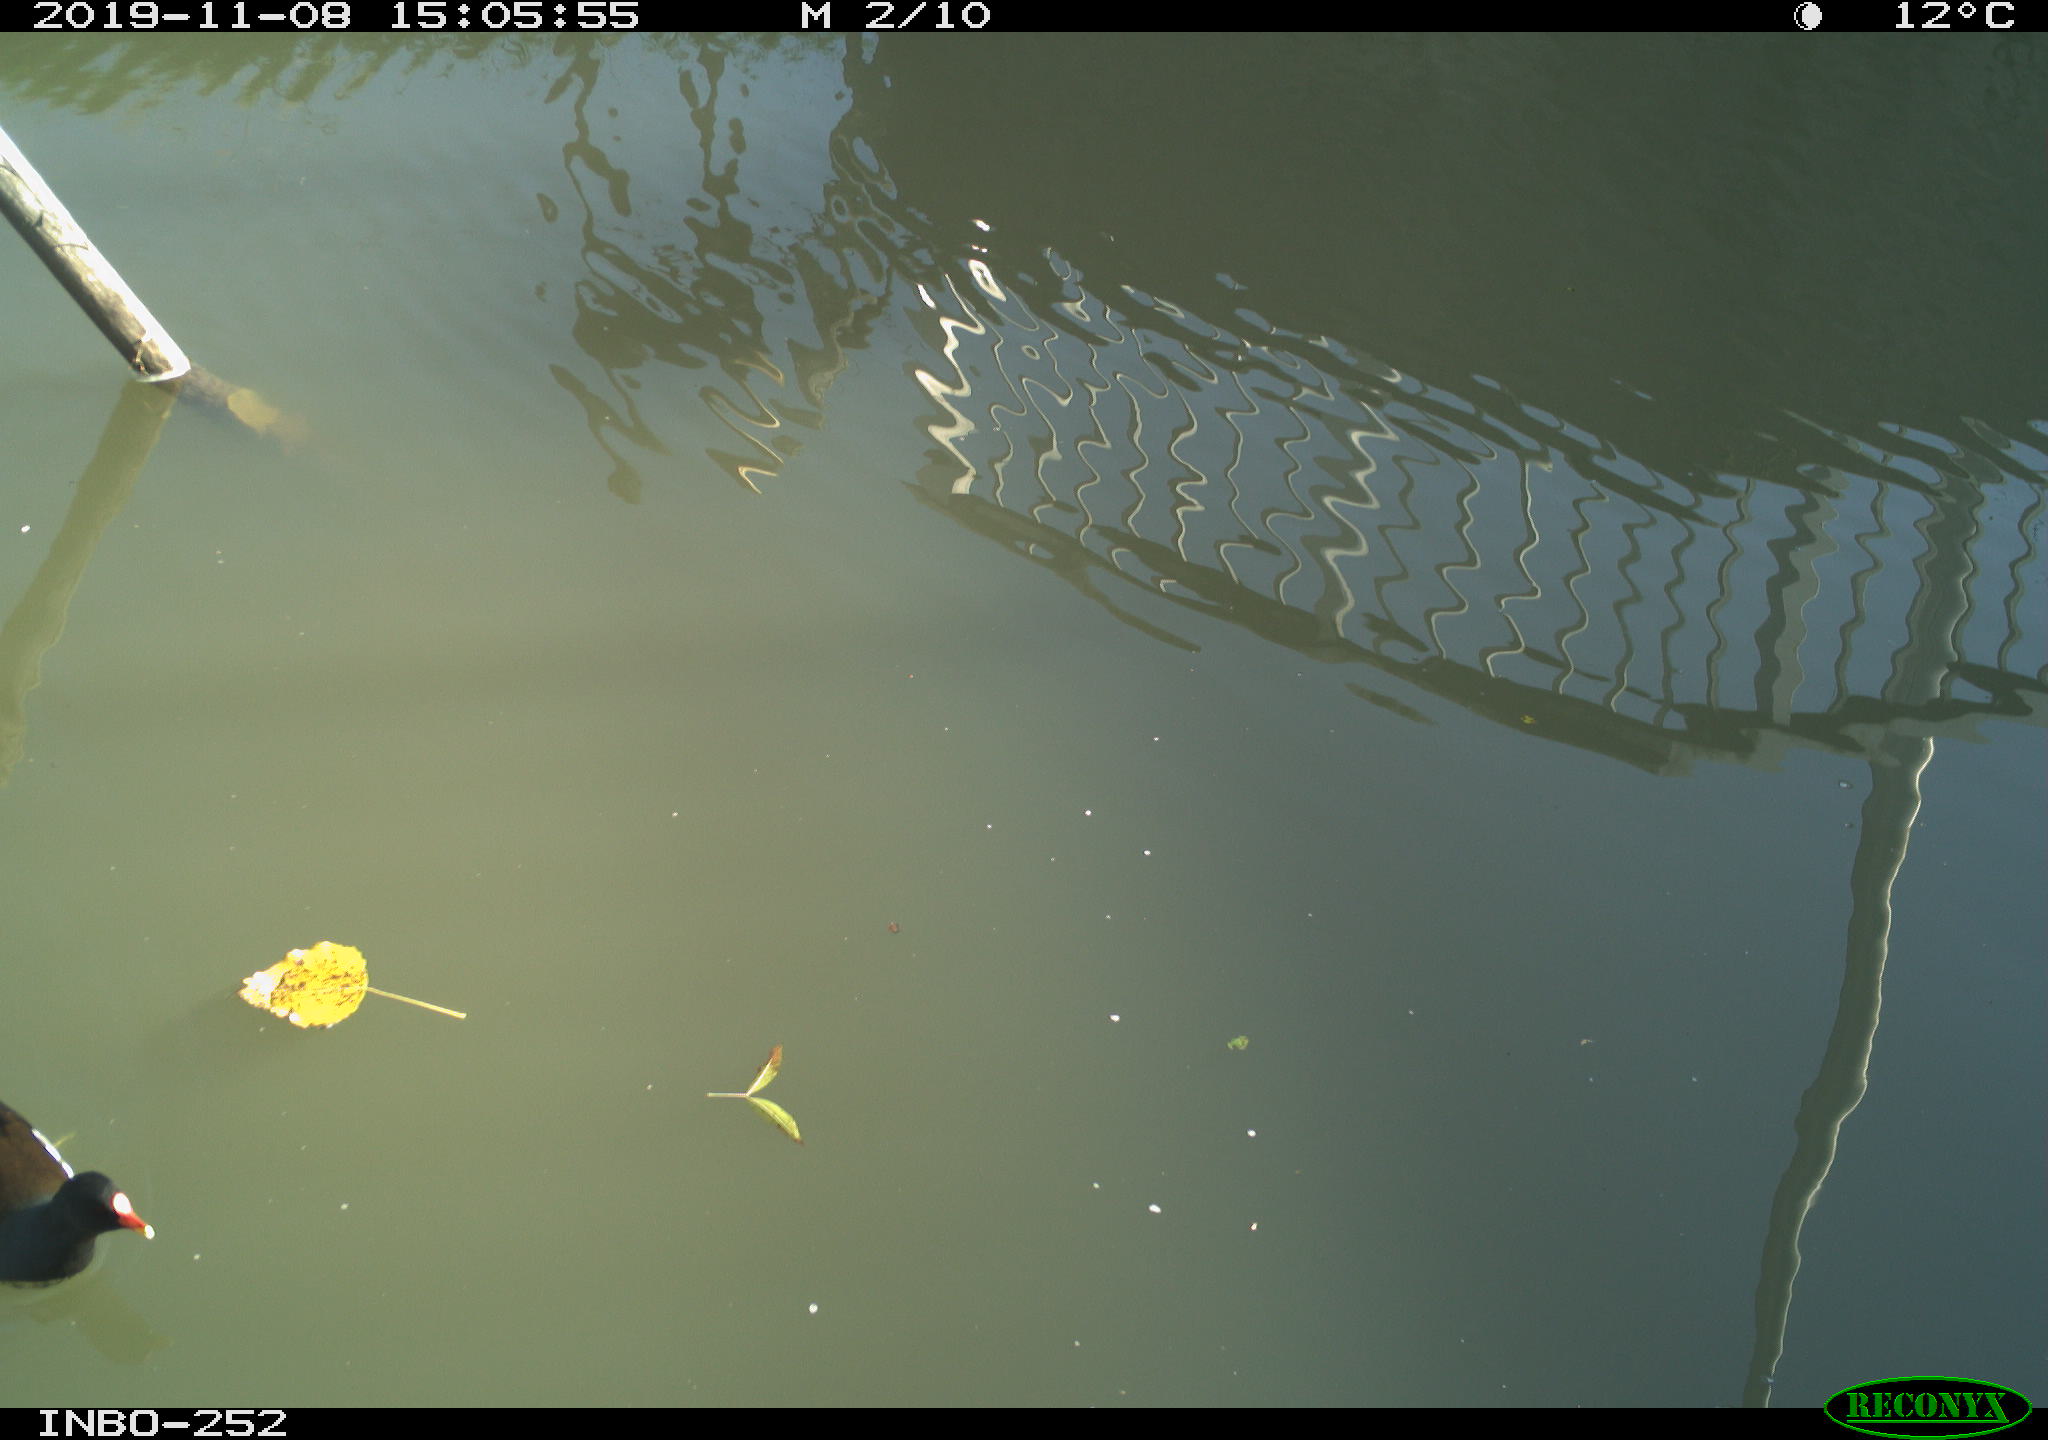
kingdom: Animalia
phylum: Chordata
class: Aves
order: Gruiformes
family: Rallidae
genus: Gallinula
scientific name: Gallinula chloropus
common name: Common moorhen
